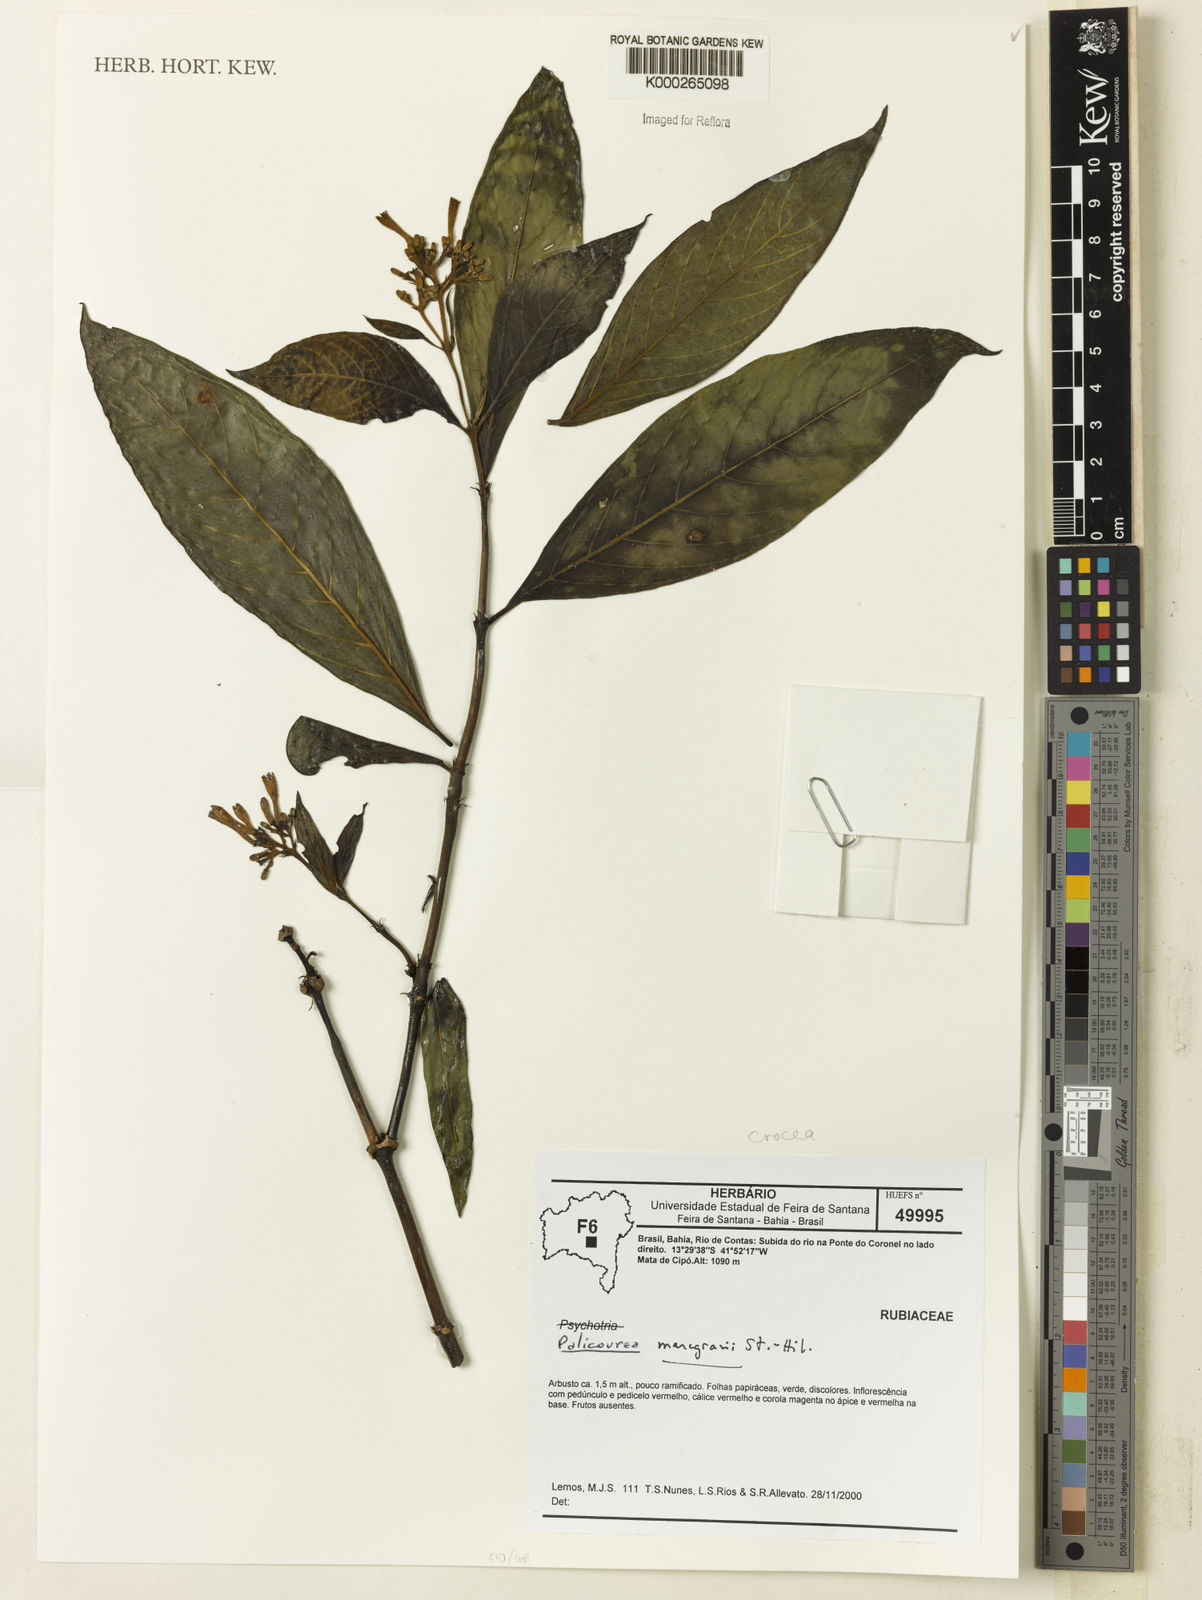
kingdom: Plantae
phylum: Tracheophyta
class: Magnoliopsida
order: Gentianales
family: Rubiaceae
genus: Palicourea
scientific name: Palicourea crocea
